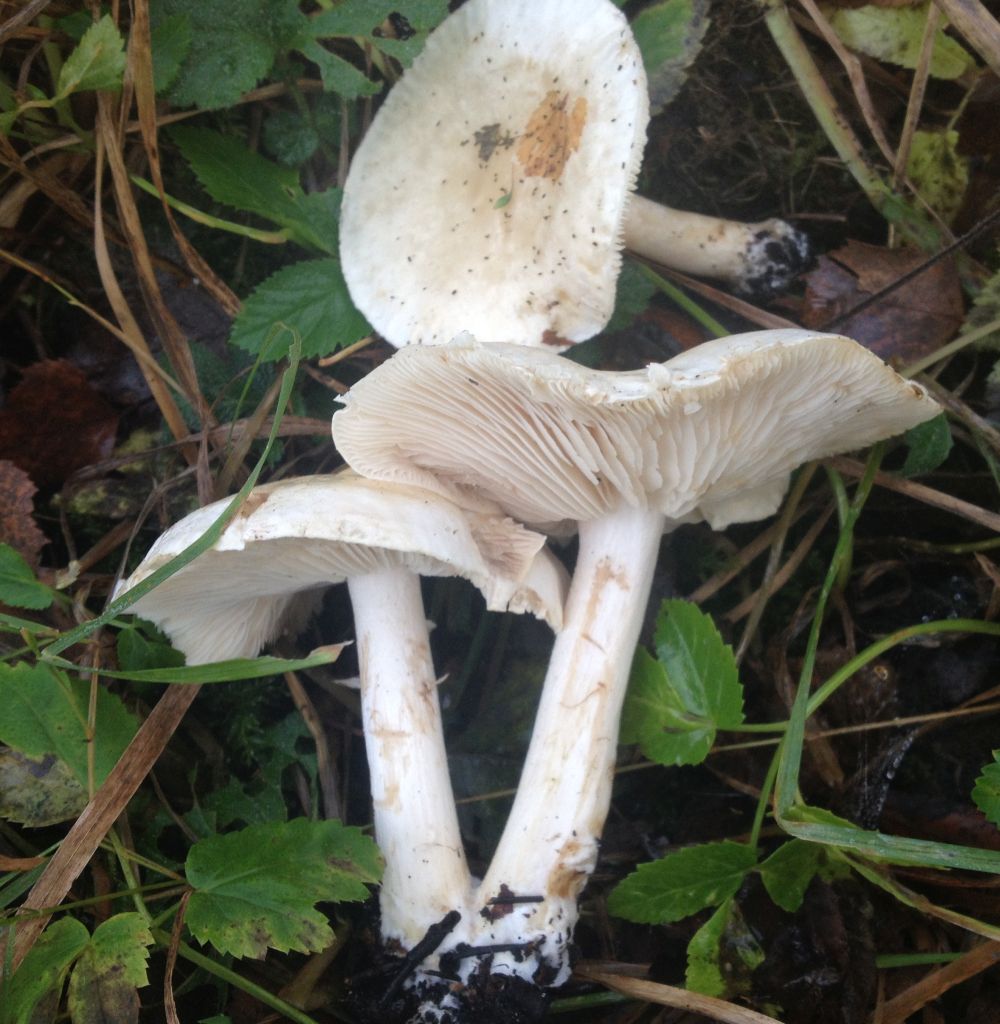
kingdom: Fungi
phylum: Basidiomycota
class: Agaricomycetes
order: Agaricales
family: Tricholomataceae
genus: Tricholoma
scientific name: Tricholoma stiparophyllum
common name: hvid ridderhat
